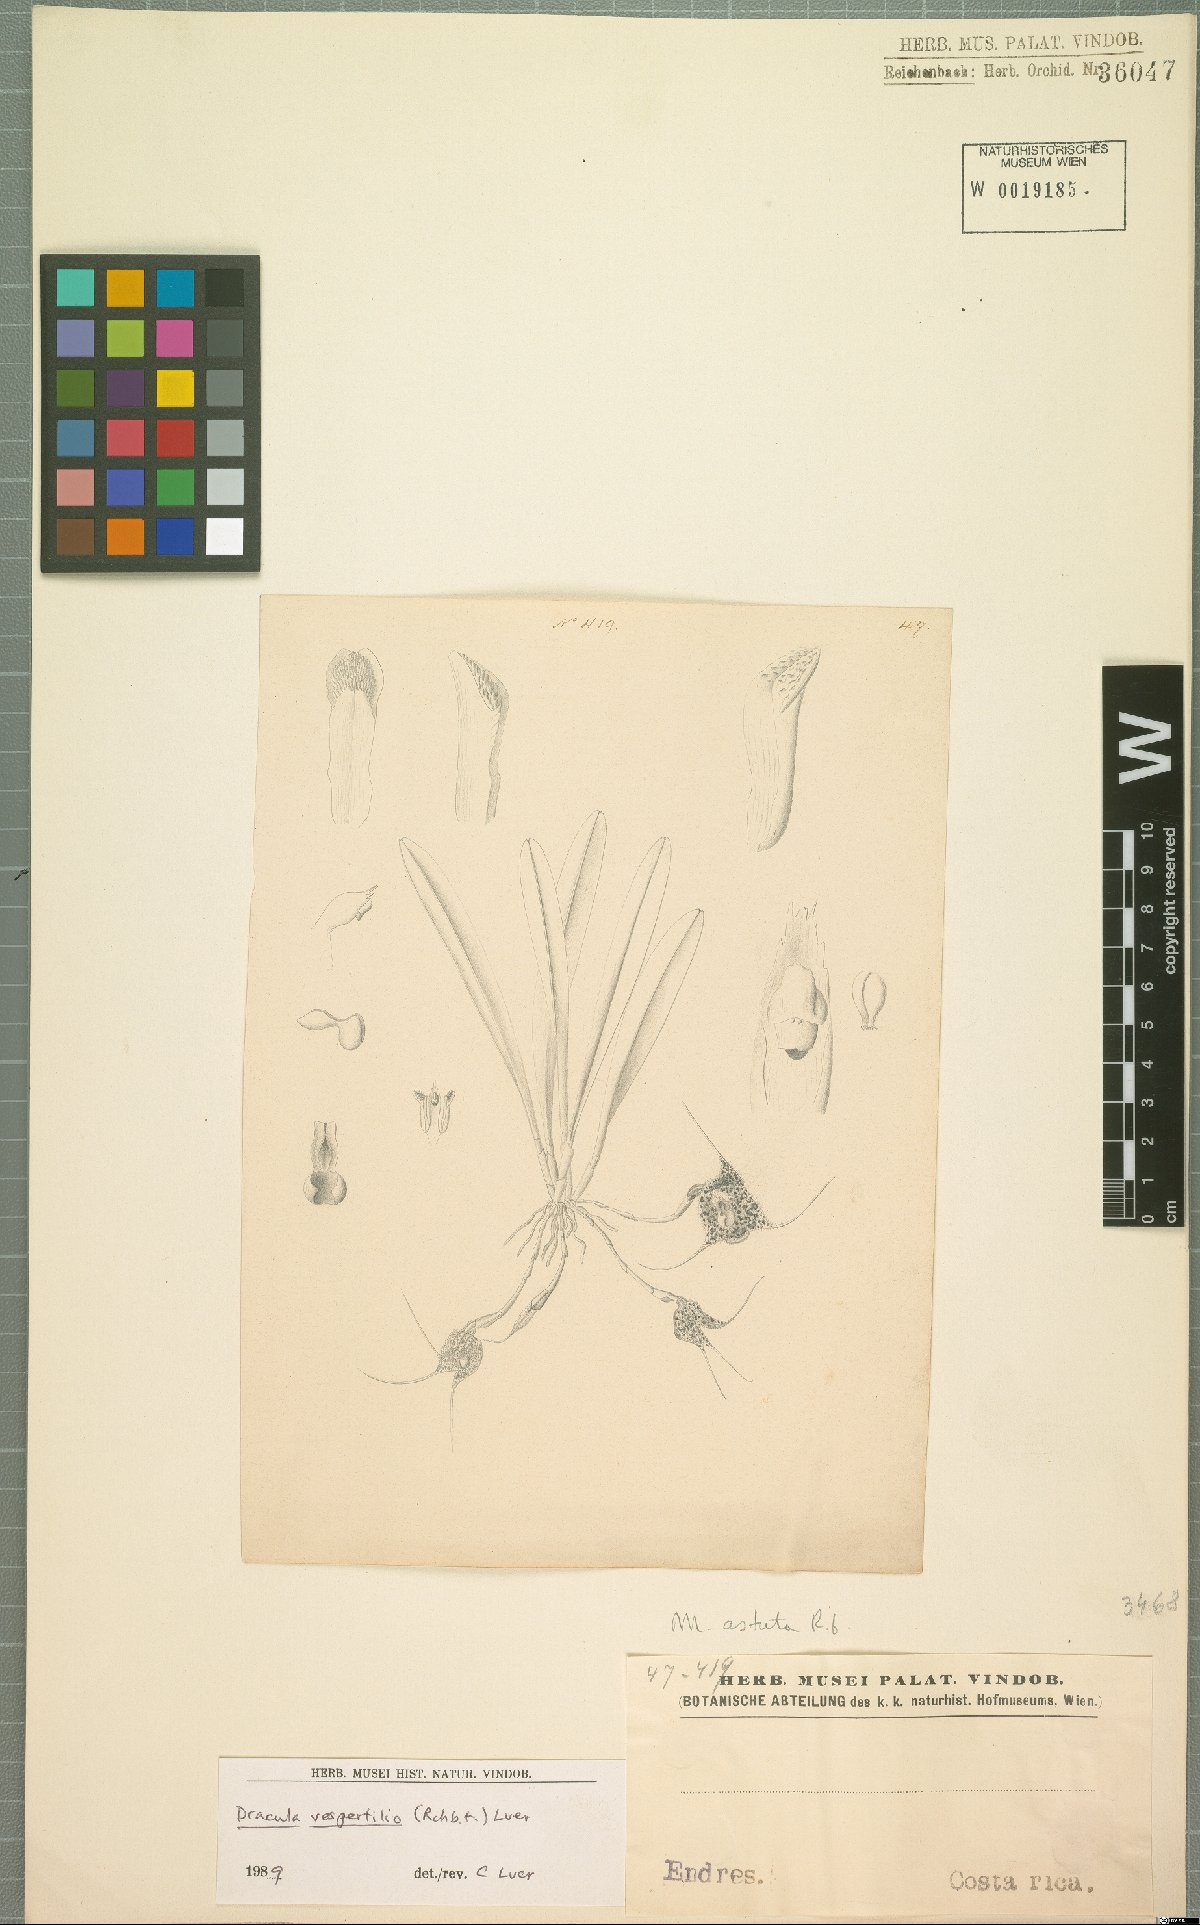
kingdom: Plantae
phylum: Tracheophyta
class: Liliopsida
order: Asparagales
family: Orchidaceae
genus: Dracula
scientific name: Dracula vespertilio
